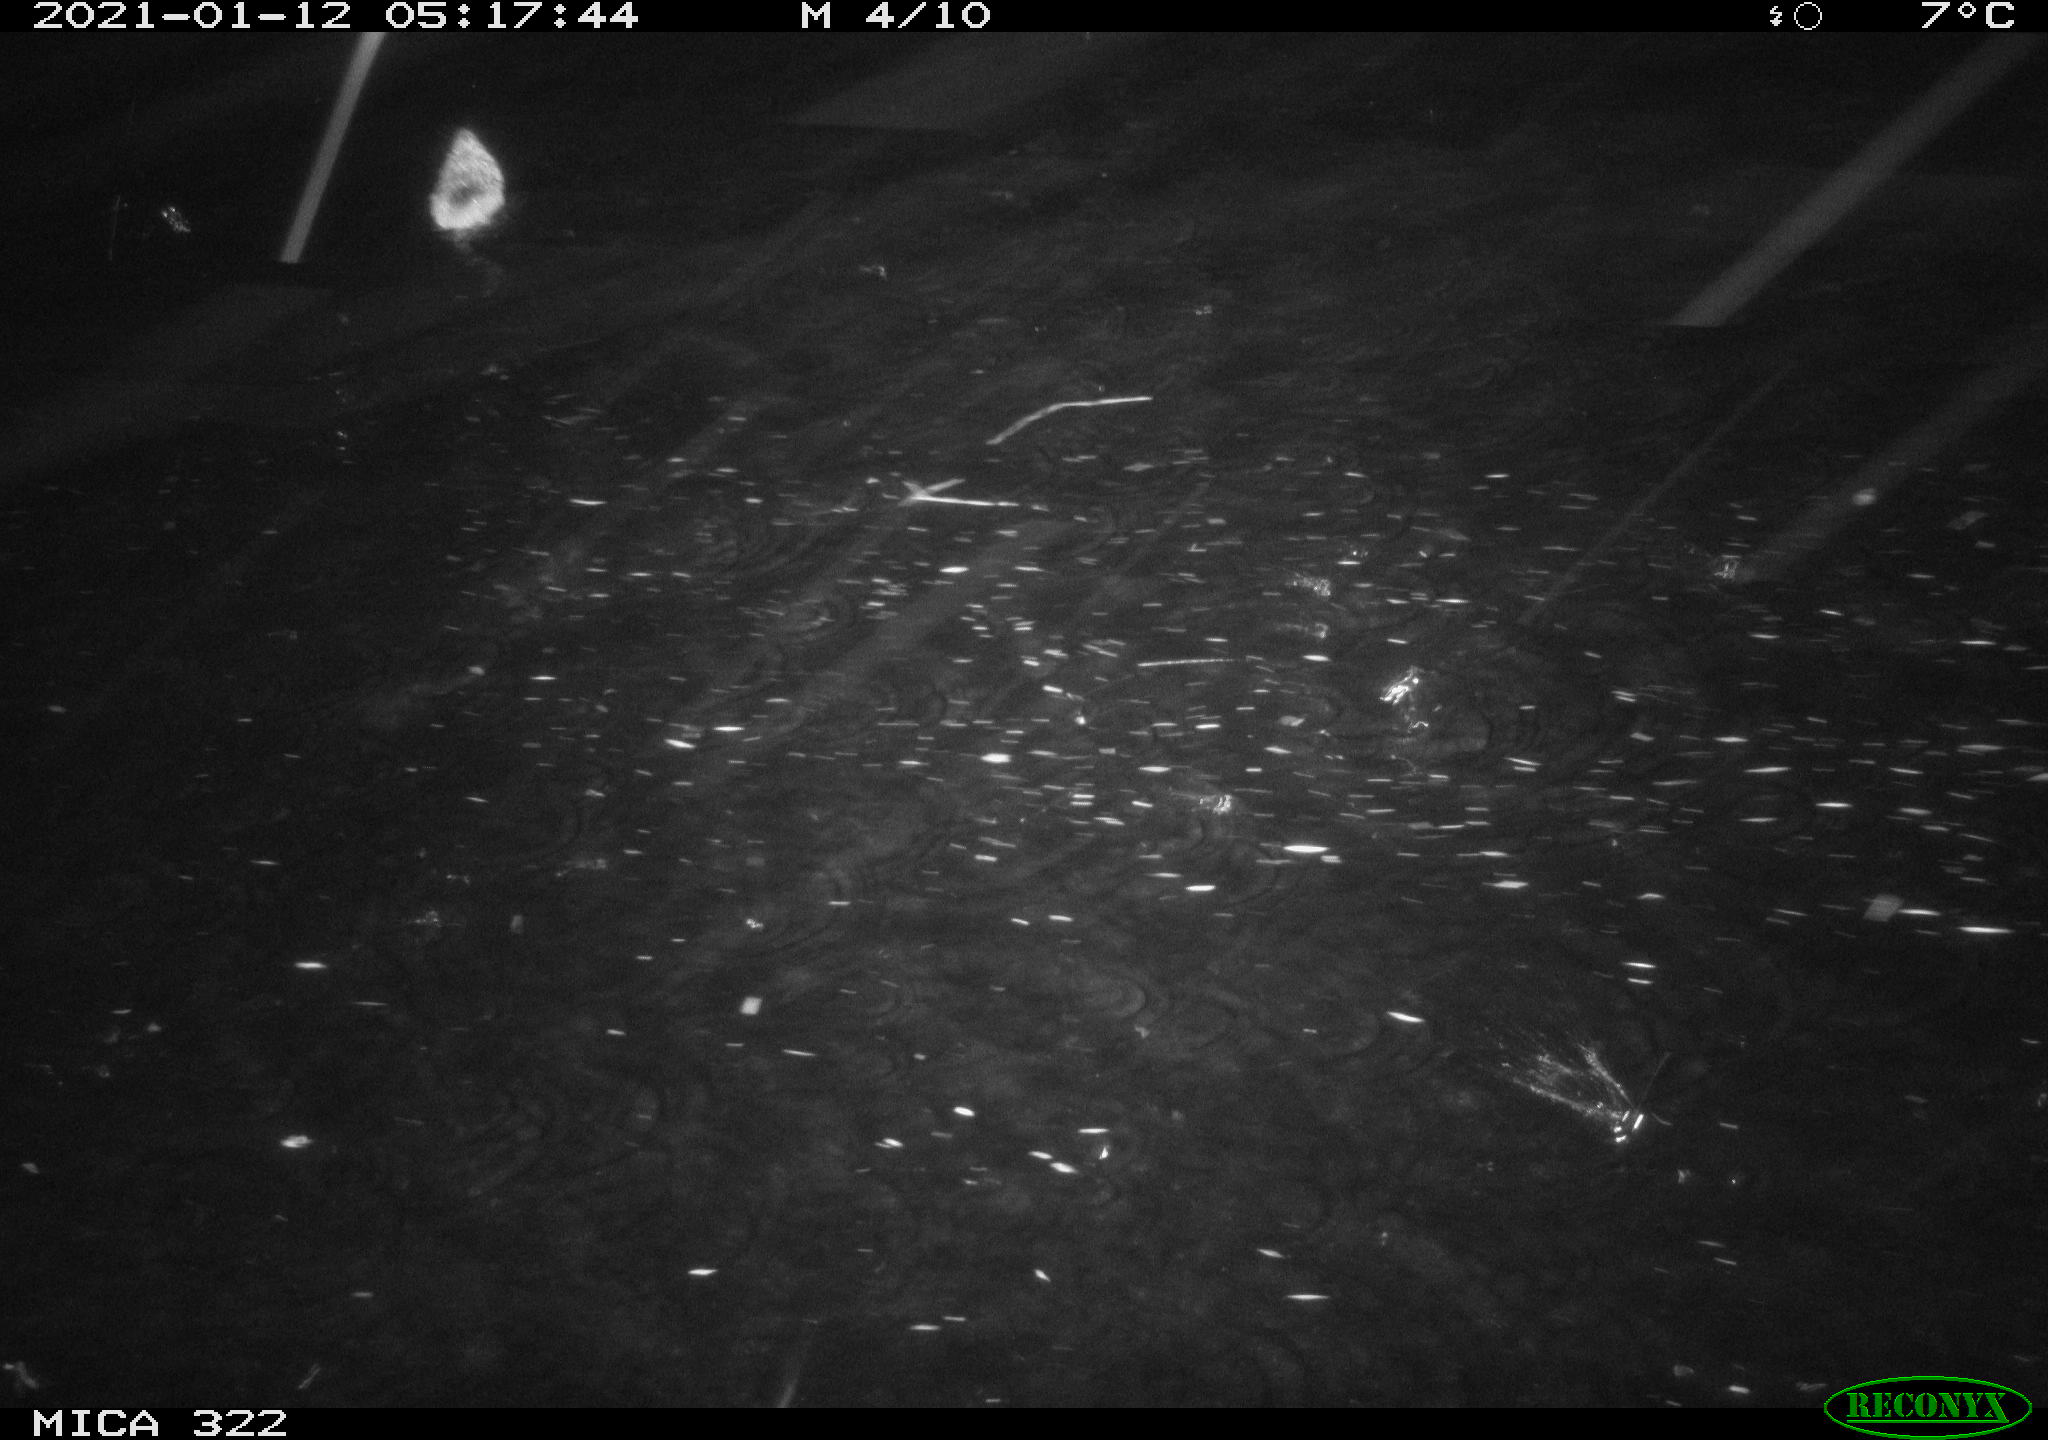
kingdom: Animalia
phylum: Chordata
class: Mammalia
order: Rodentia
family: Muridae
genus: Rattus
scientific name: Rattus norvegicus
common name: Brown rat
